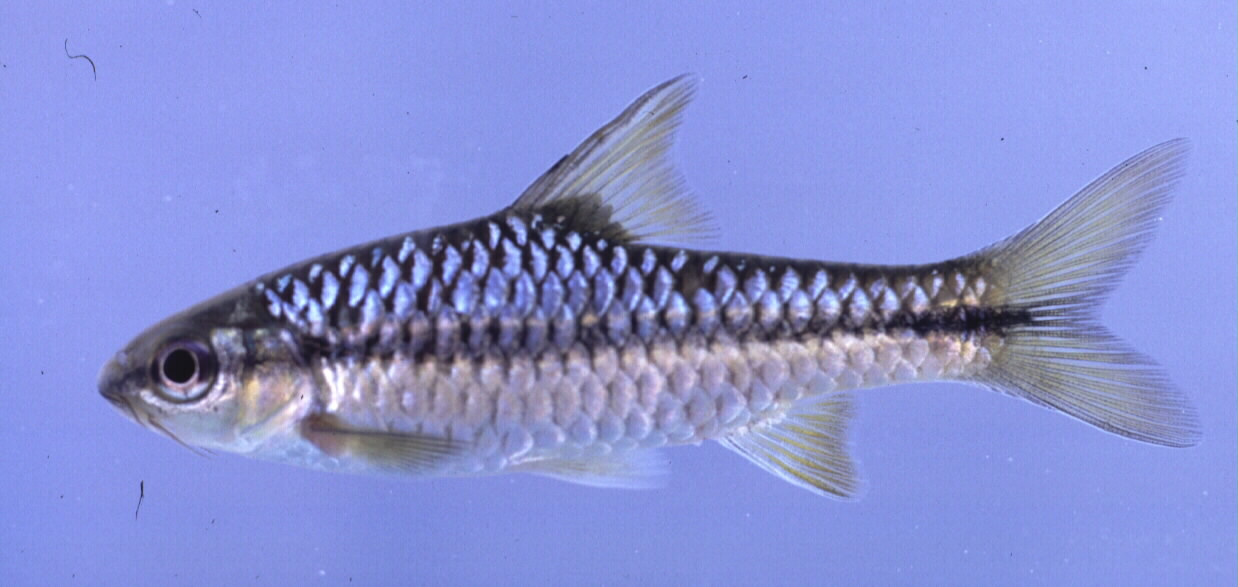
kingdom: Animalia
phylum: Chordata
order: Cypriniformes
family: Cyprinidae
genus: Enteromius
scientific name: Enteromius eutaenia
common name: Orangefin barb
